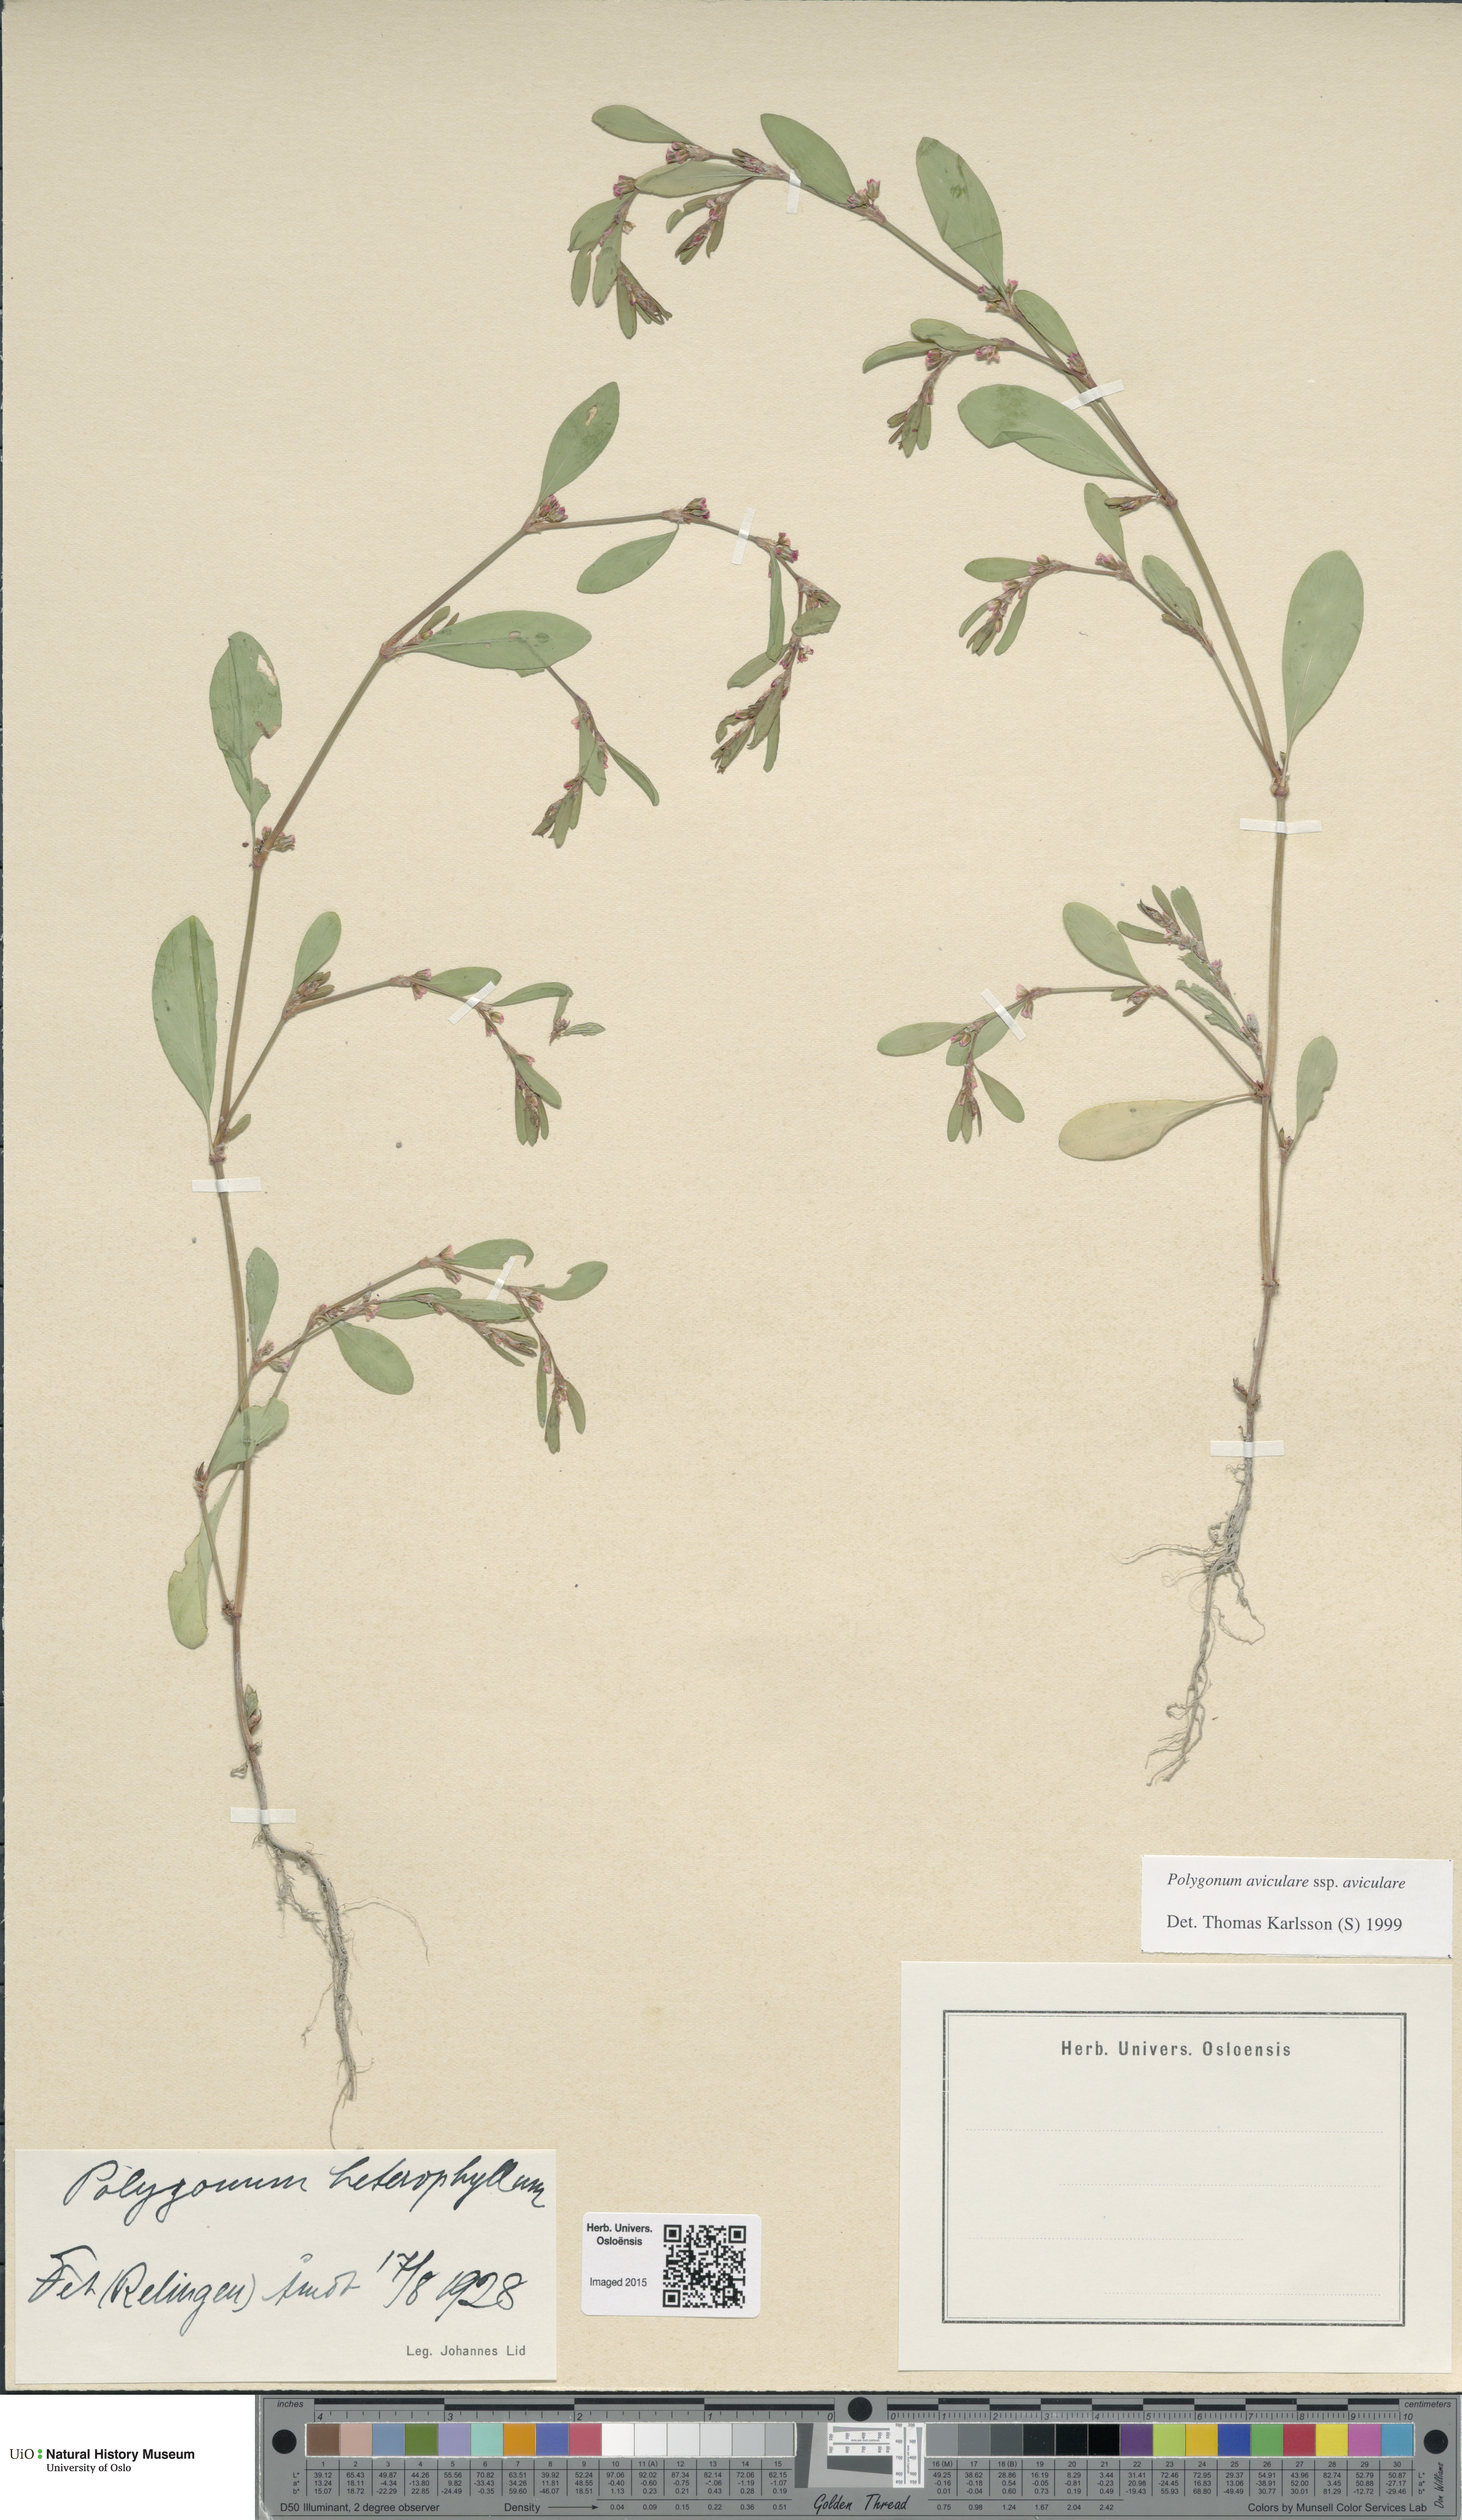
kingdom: Plantae
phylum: Tracheophyta
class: Magnoliopsida
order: Caryophyllales
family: Polygonaceae
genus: Polygonum
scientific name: Polygonum aviculare
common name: Prostrate knotweed
